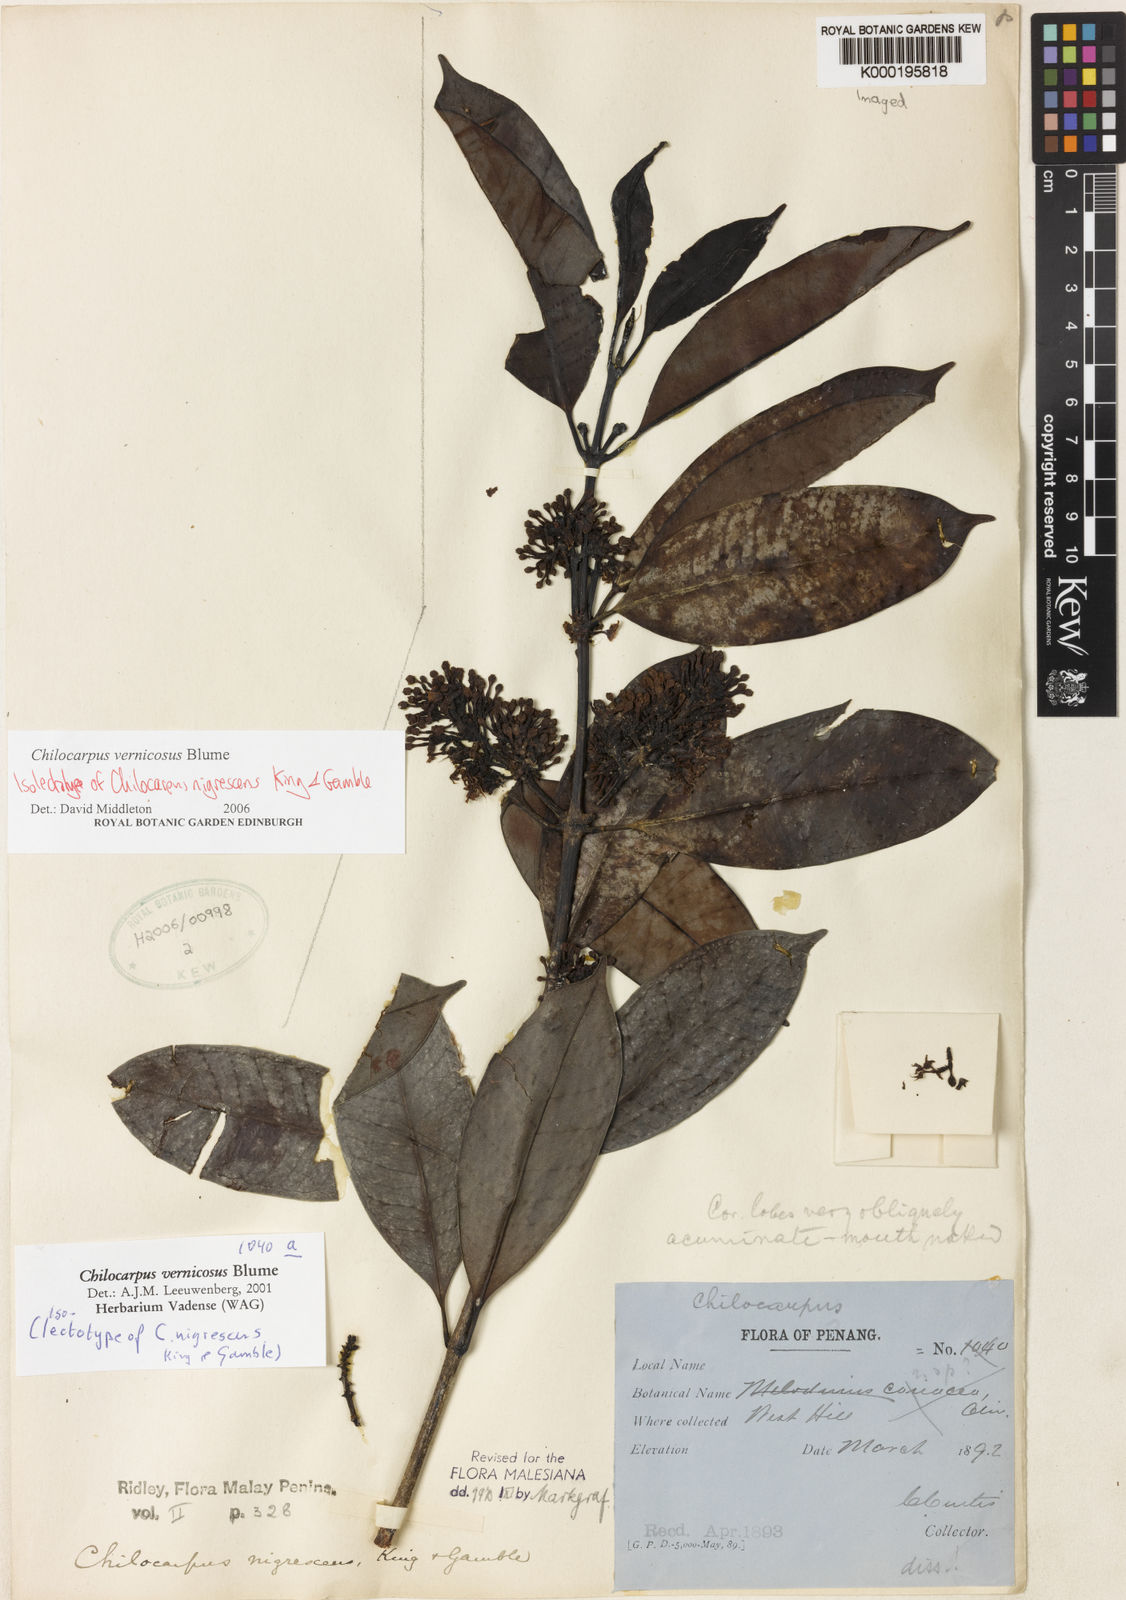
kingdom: Plantae
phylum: Tracheophyta
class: Magnoliopsida
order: Gentianales
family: Apocynaceae
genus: Chilocarpus
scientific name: Chilocarpus vernicosus
